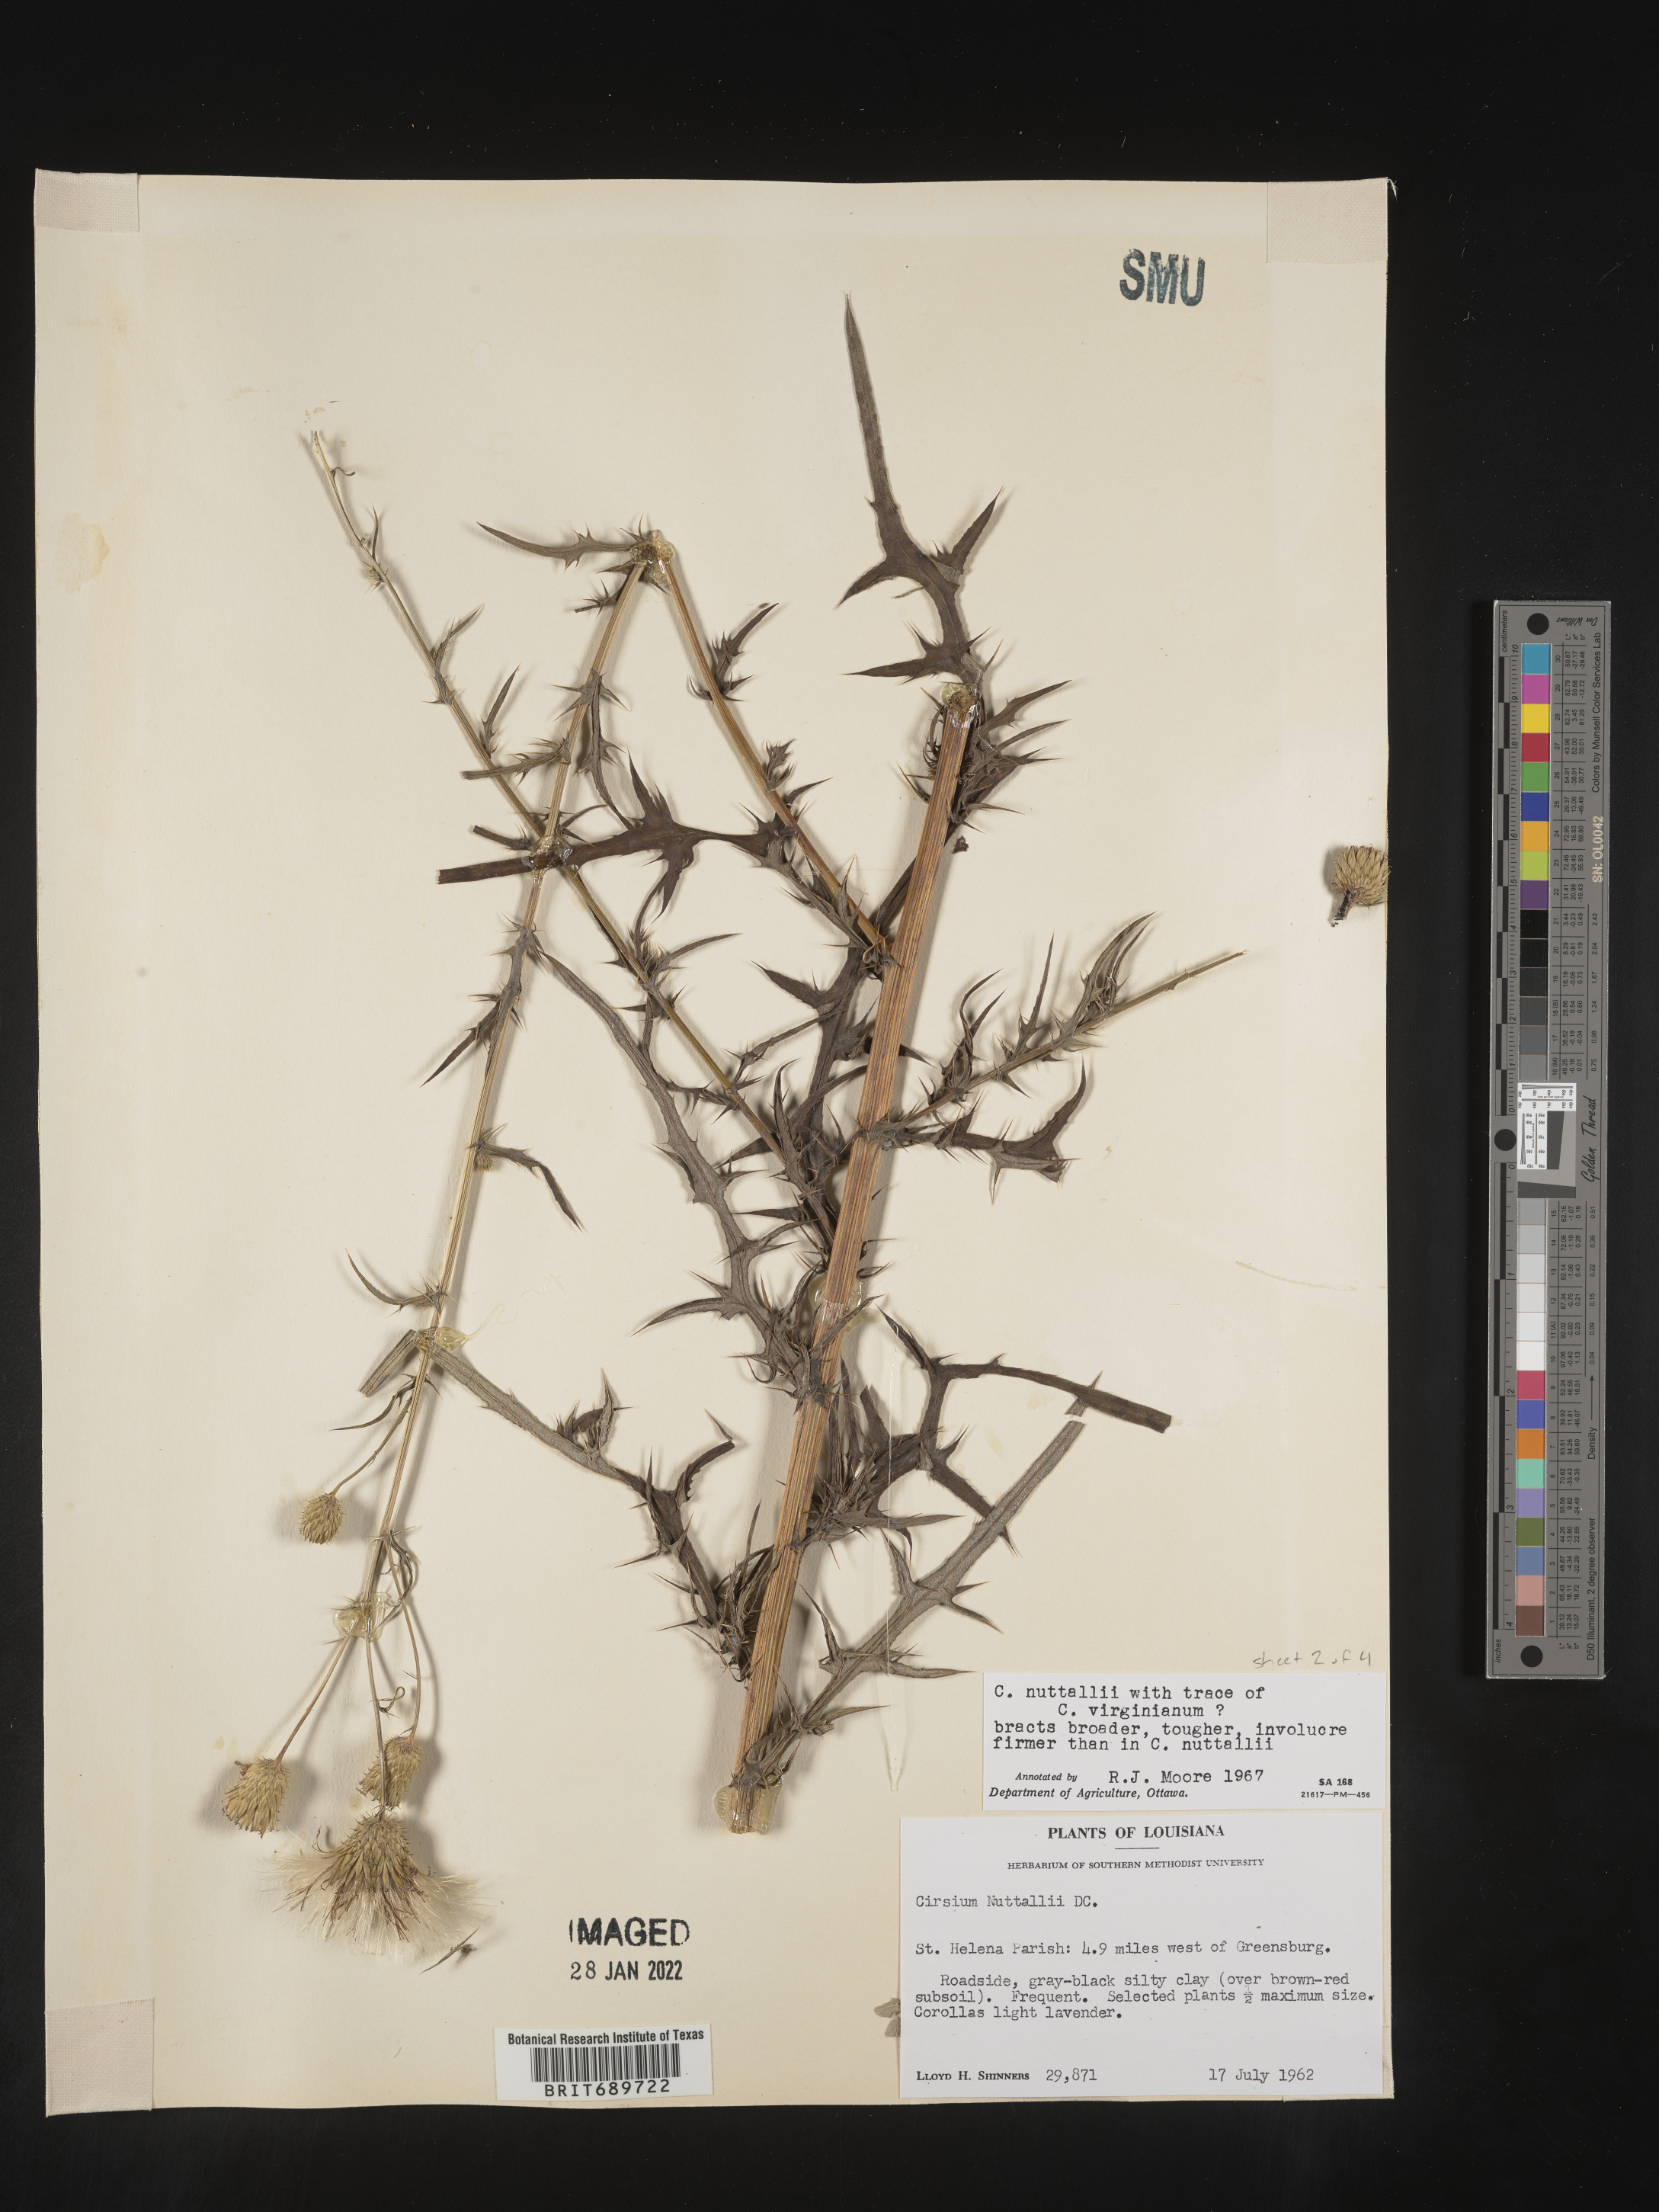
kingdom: Plantae
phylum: Tracheophyta
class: Magnoliopsida
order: Asterales
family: Asteraceae
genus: Cirsium
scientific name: Cirsium
